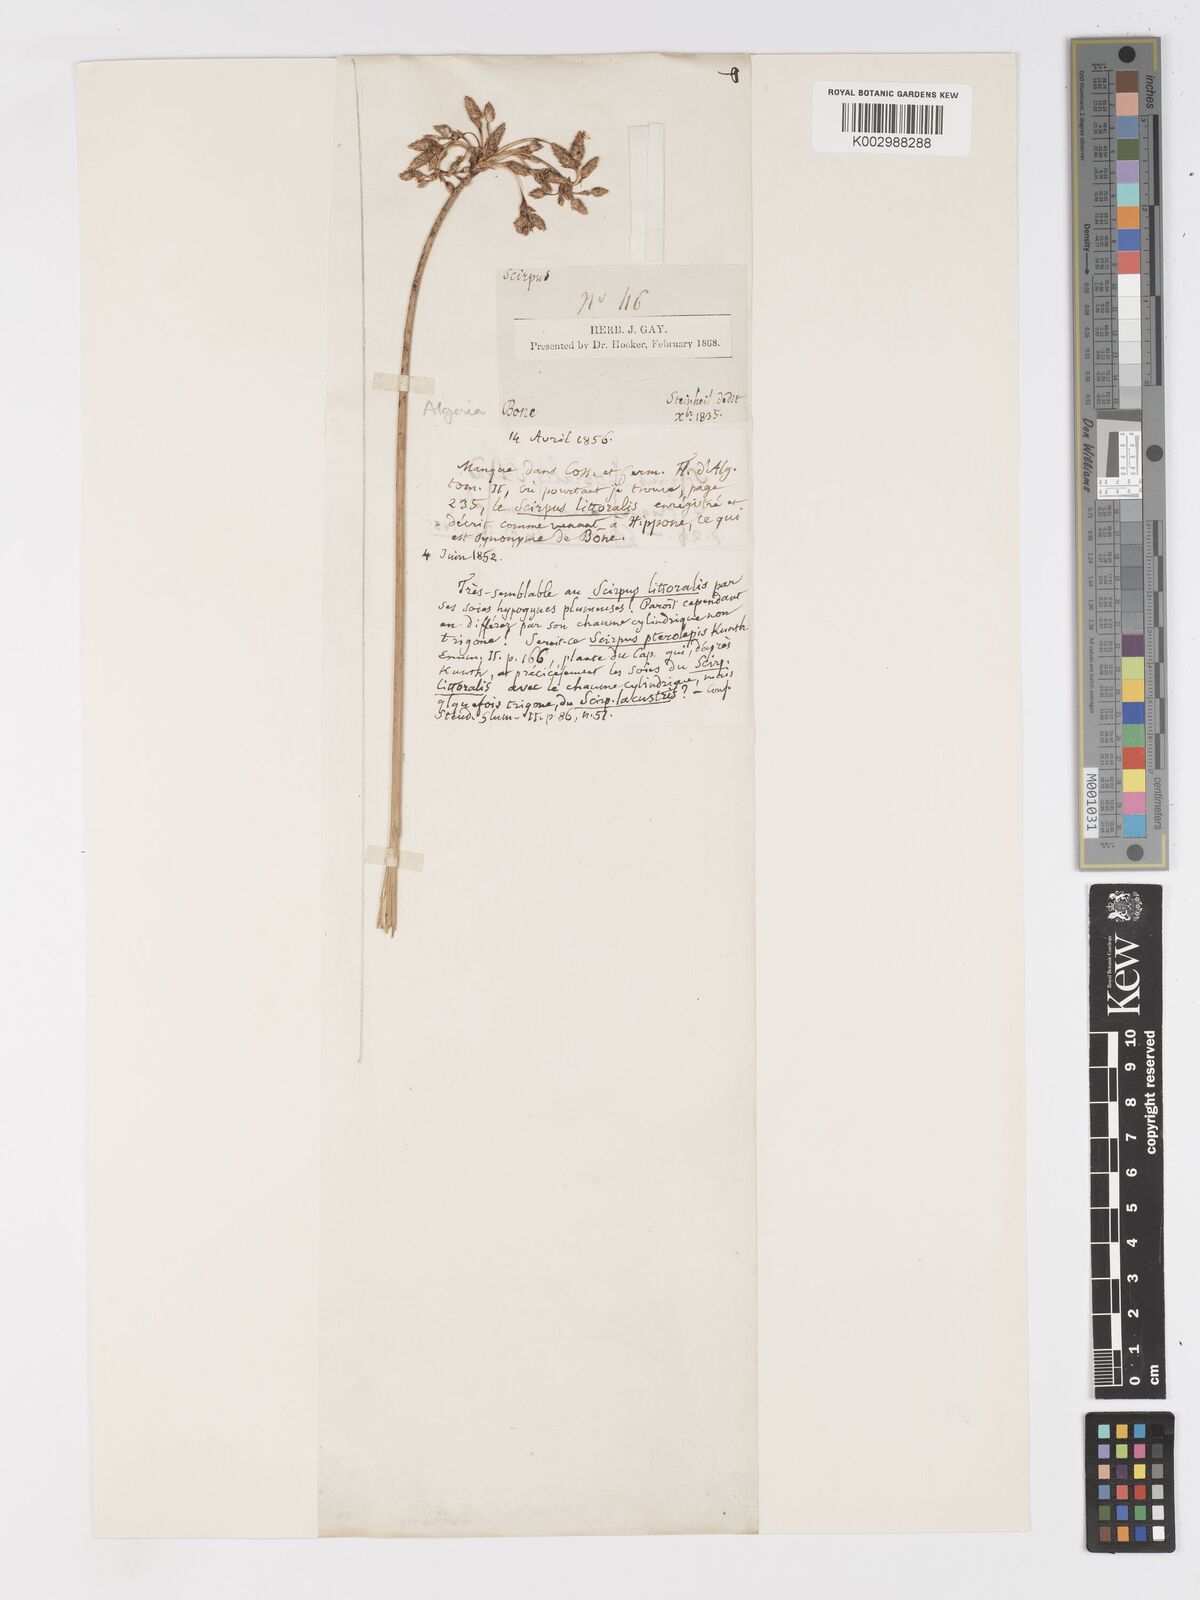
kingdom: Plantae
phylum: Tracheophyta
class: Liliopsida
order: Poales
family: Cyperaceae
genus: Schoenoplectus
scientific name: Schoenoplectus litoralis
